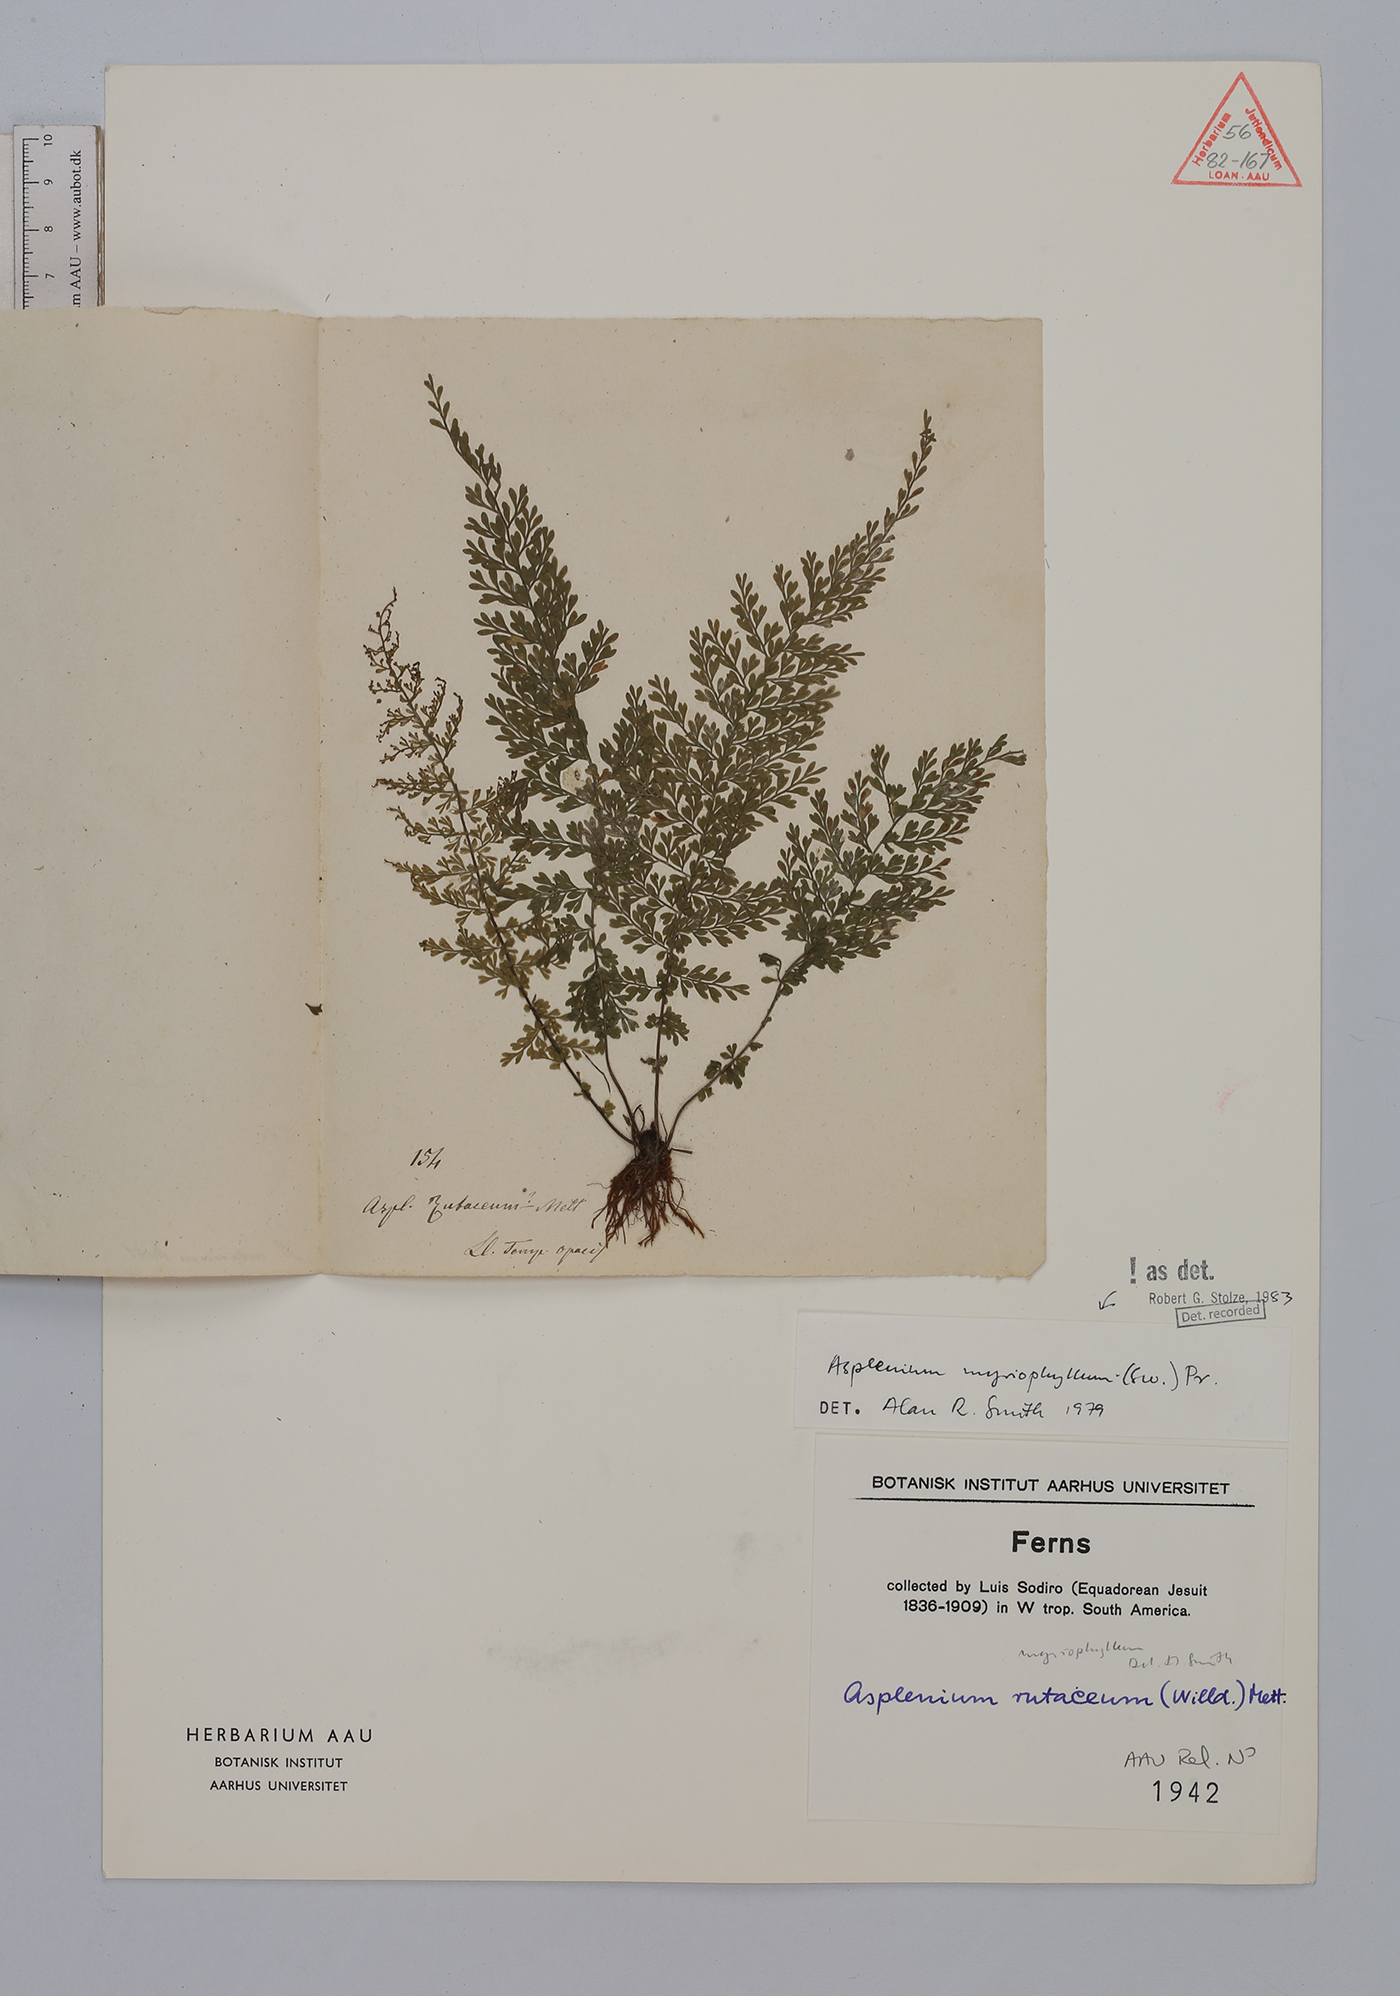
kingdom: Plantae
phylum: Tracheophyta
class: Polypodiopsida
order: Polypodiales
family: Aspleniaceae
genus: Asplenium
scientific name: Asplenium myriophyllum
